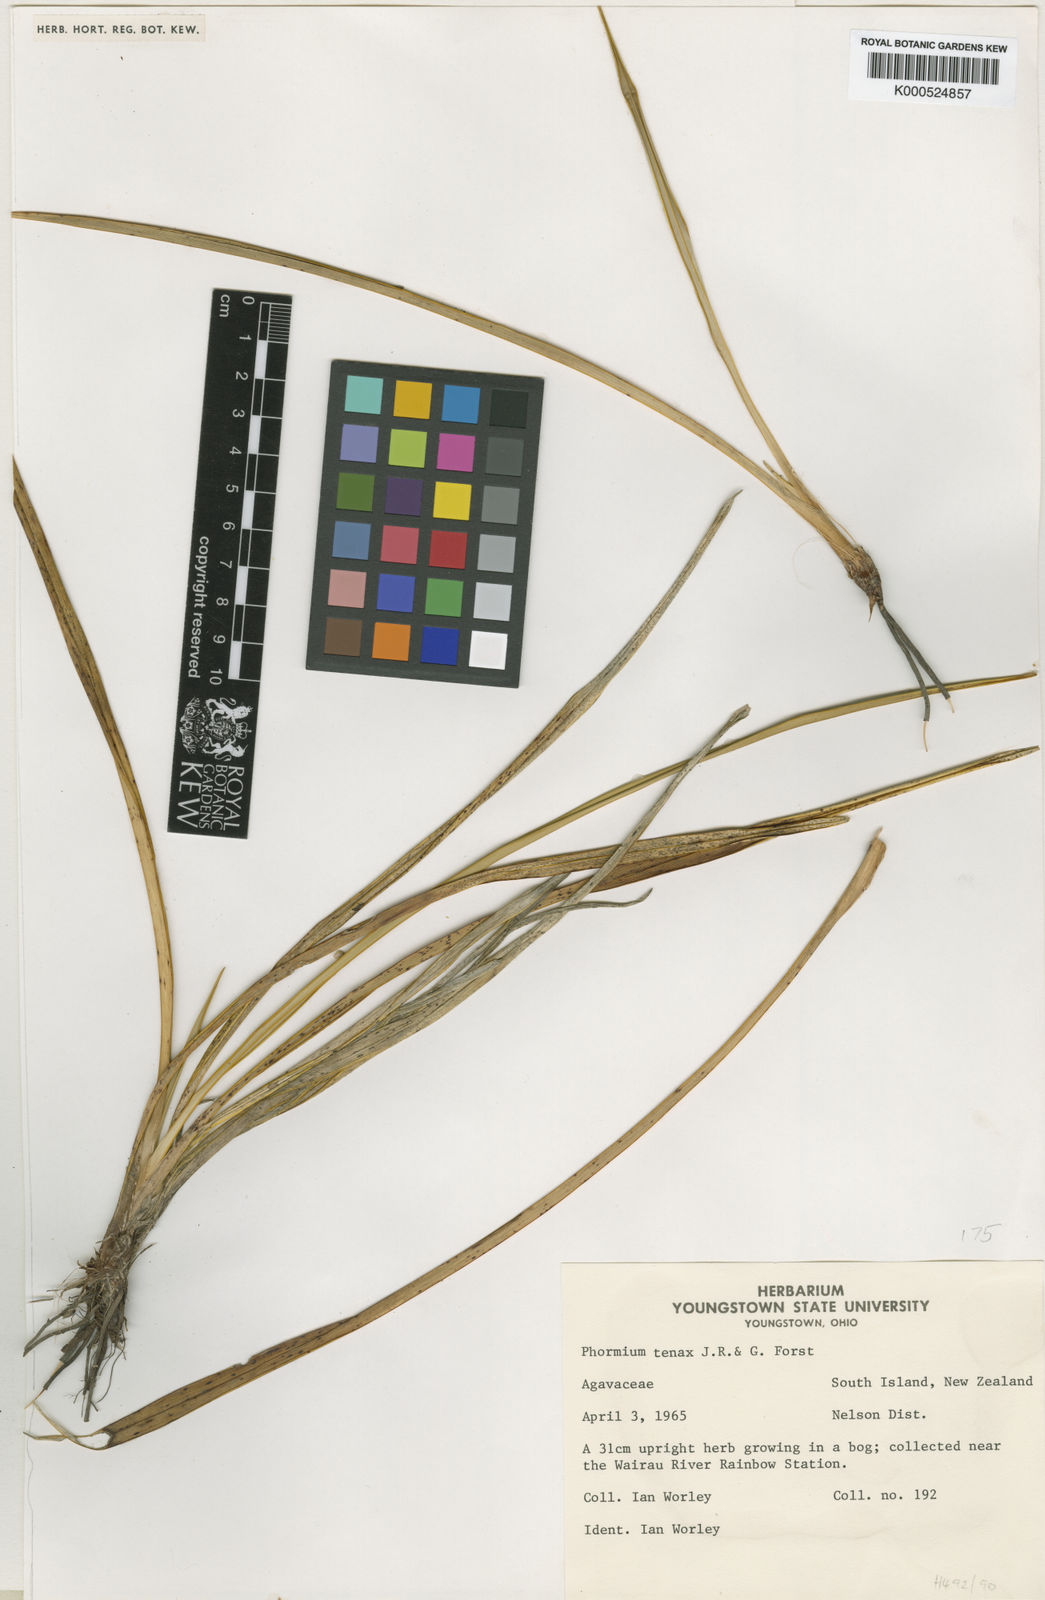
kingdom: Plantae
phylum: Tracheophyta
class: Liliopsida
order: Asparagales
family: Asphodelaceae
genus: Phormium
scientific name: Phormium tenax
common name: New zealand flax
